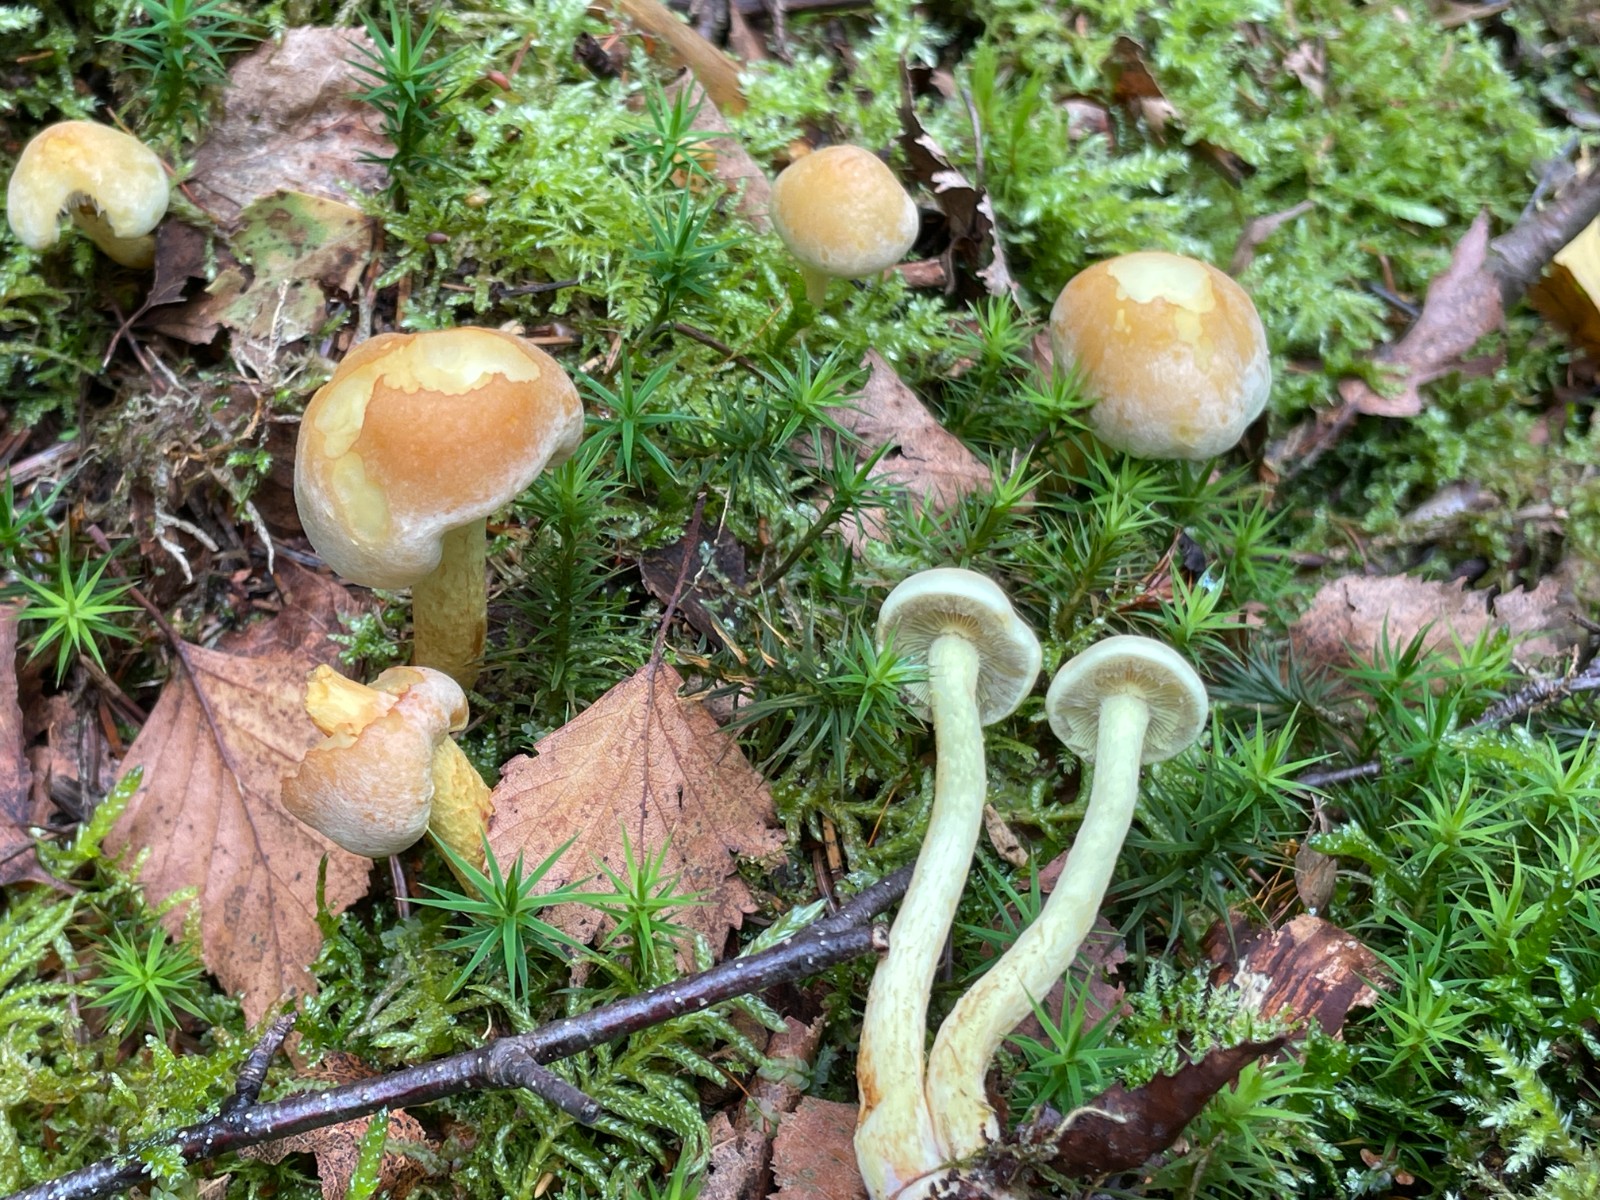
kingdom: Fungi
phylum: Basidiomycota
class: Agaricomycetes
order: Agaricales
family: Strophariaceae
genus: Hypholoma
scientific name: Hypholoma fasciculare
